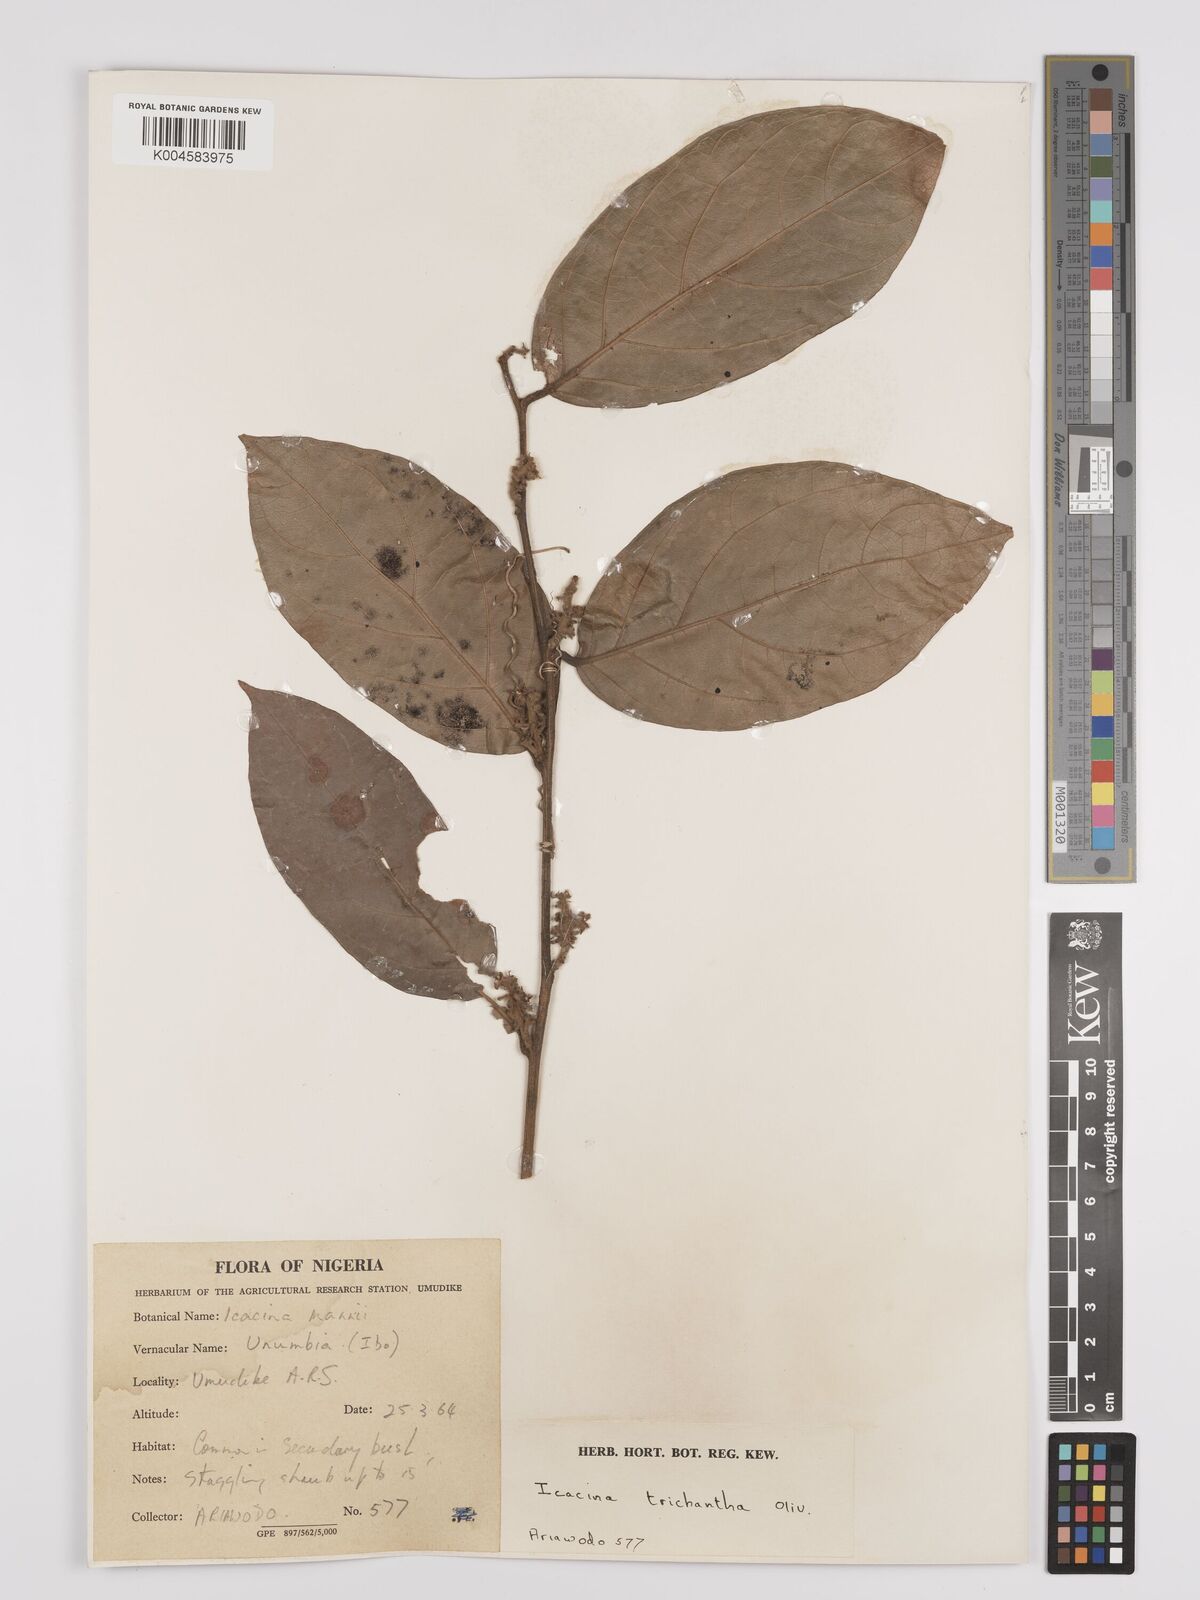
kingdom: Plantae
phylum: Tracheophyta
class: Magnoliopsida
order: Icacinales
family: Icacinaceae
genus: Icacina
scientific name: Icacina trichantha
